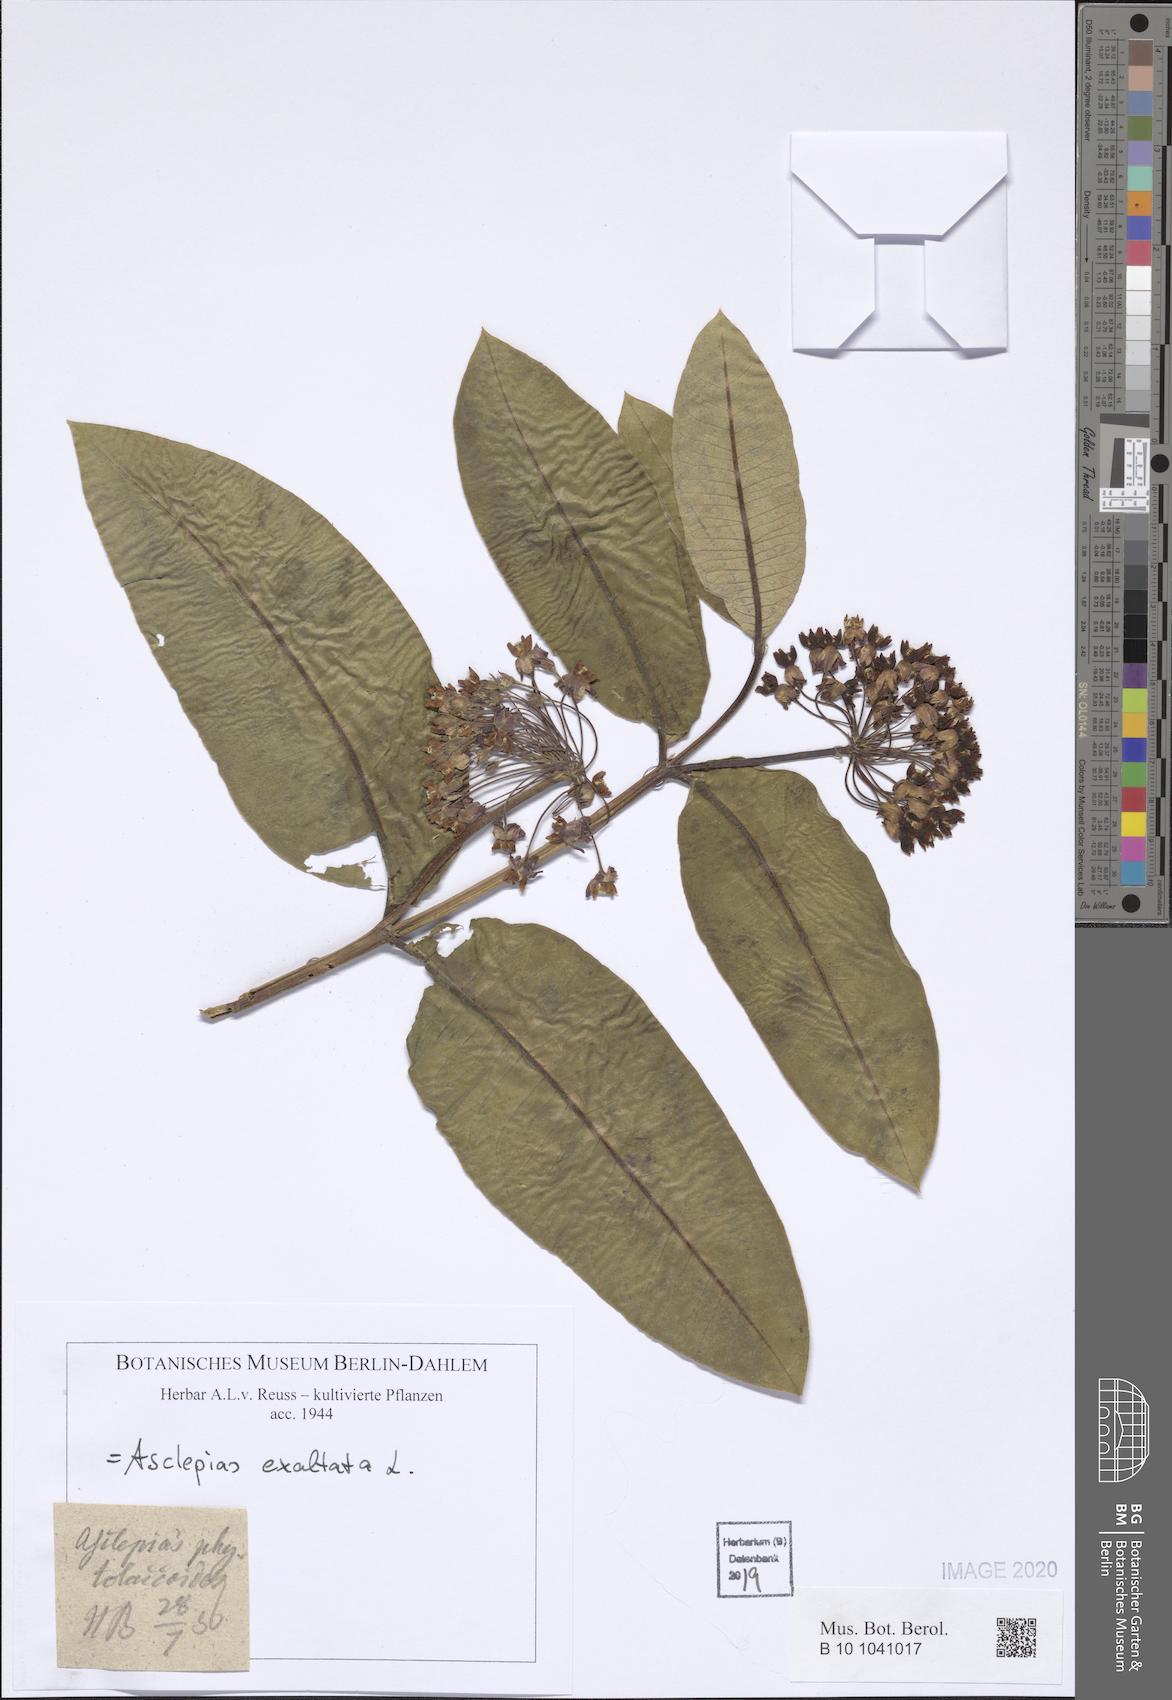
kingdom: Plantae
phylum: Tracheophyta
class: Magnoliopsida
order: Gentianales
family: Apocynaceae
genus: Asclepias
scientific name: Asclepias exaltata
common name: Poke milkweed
